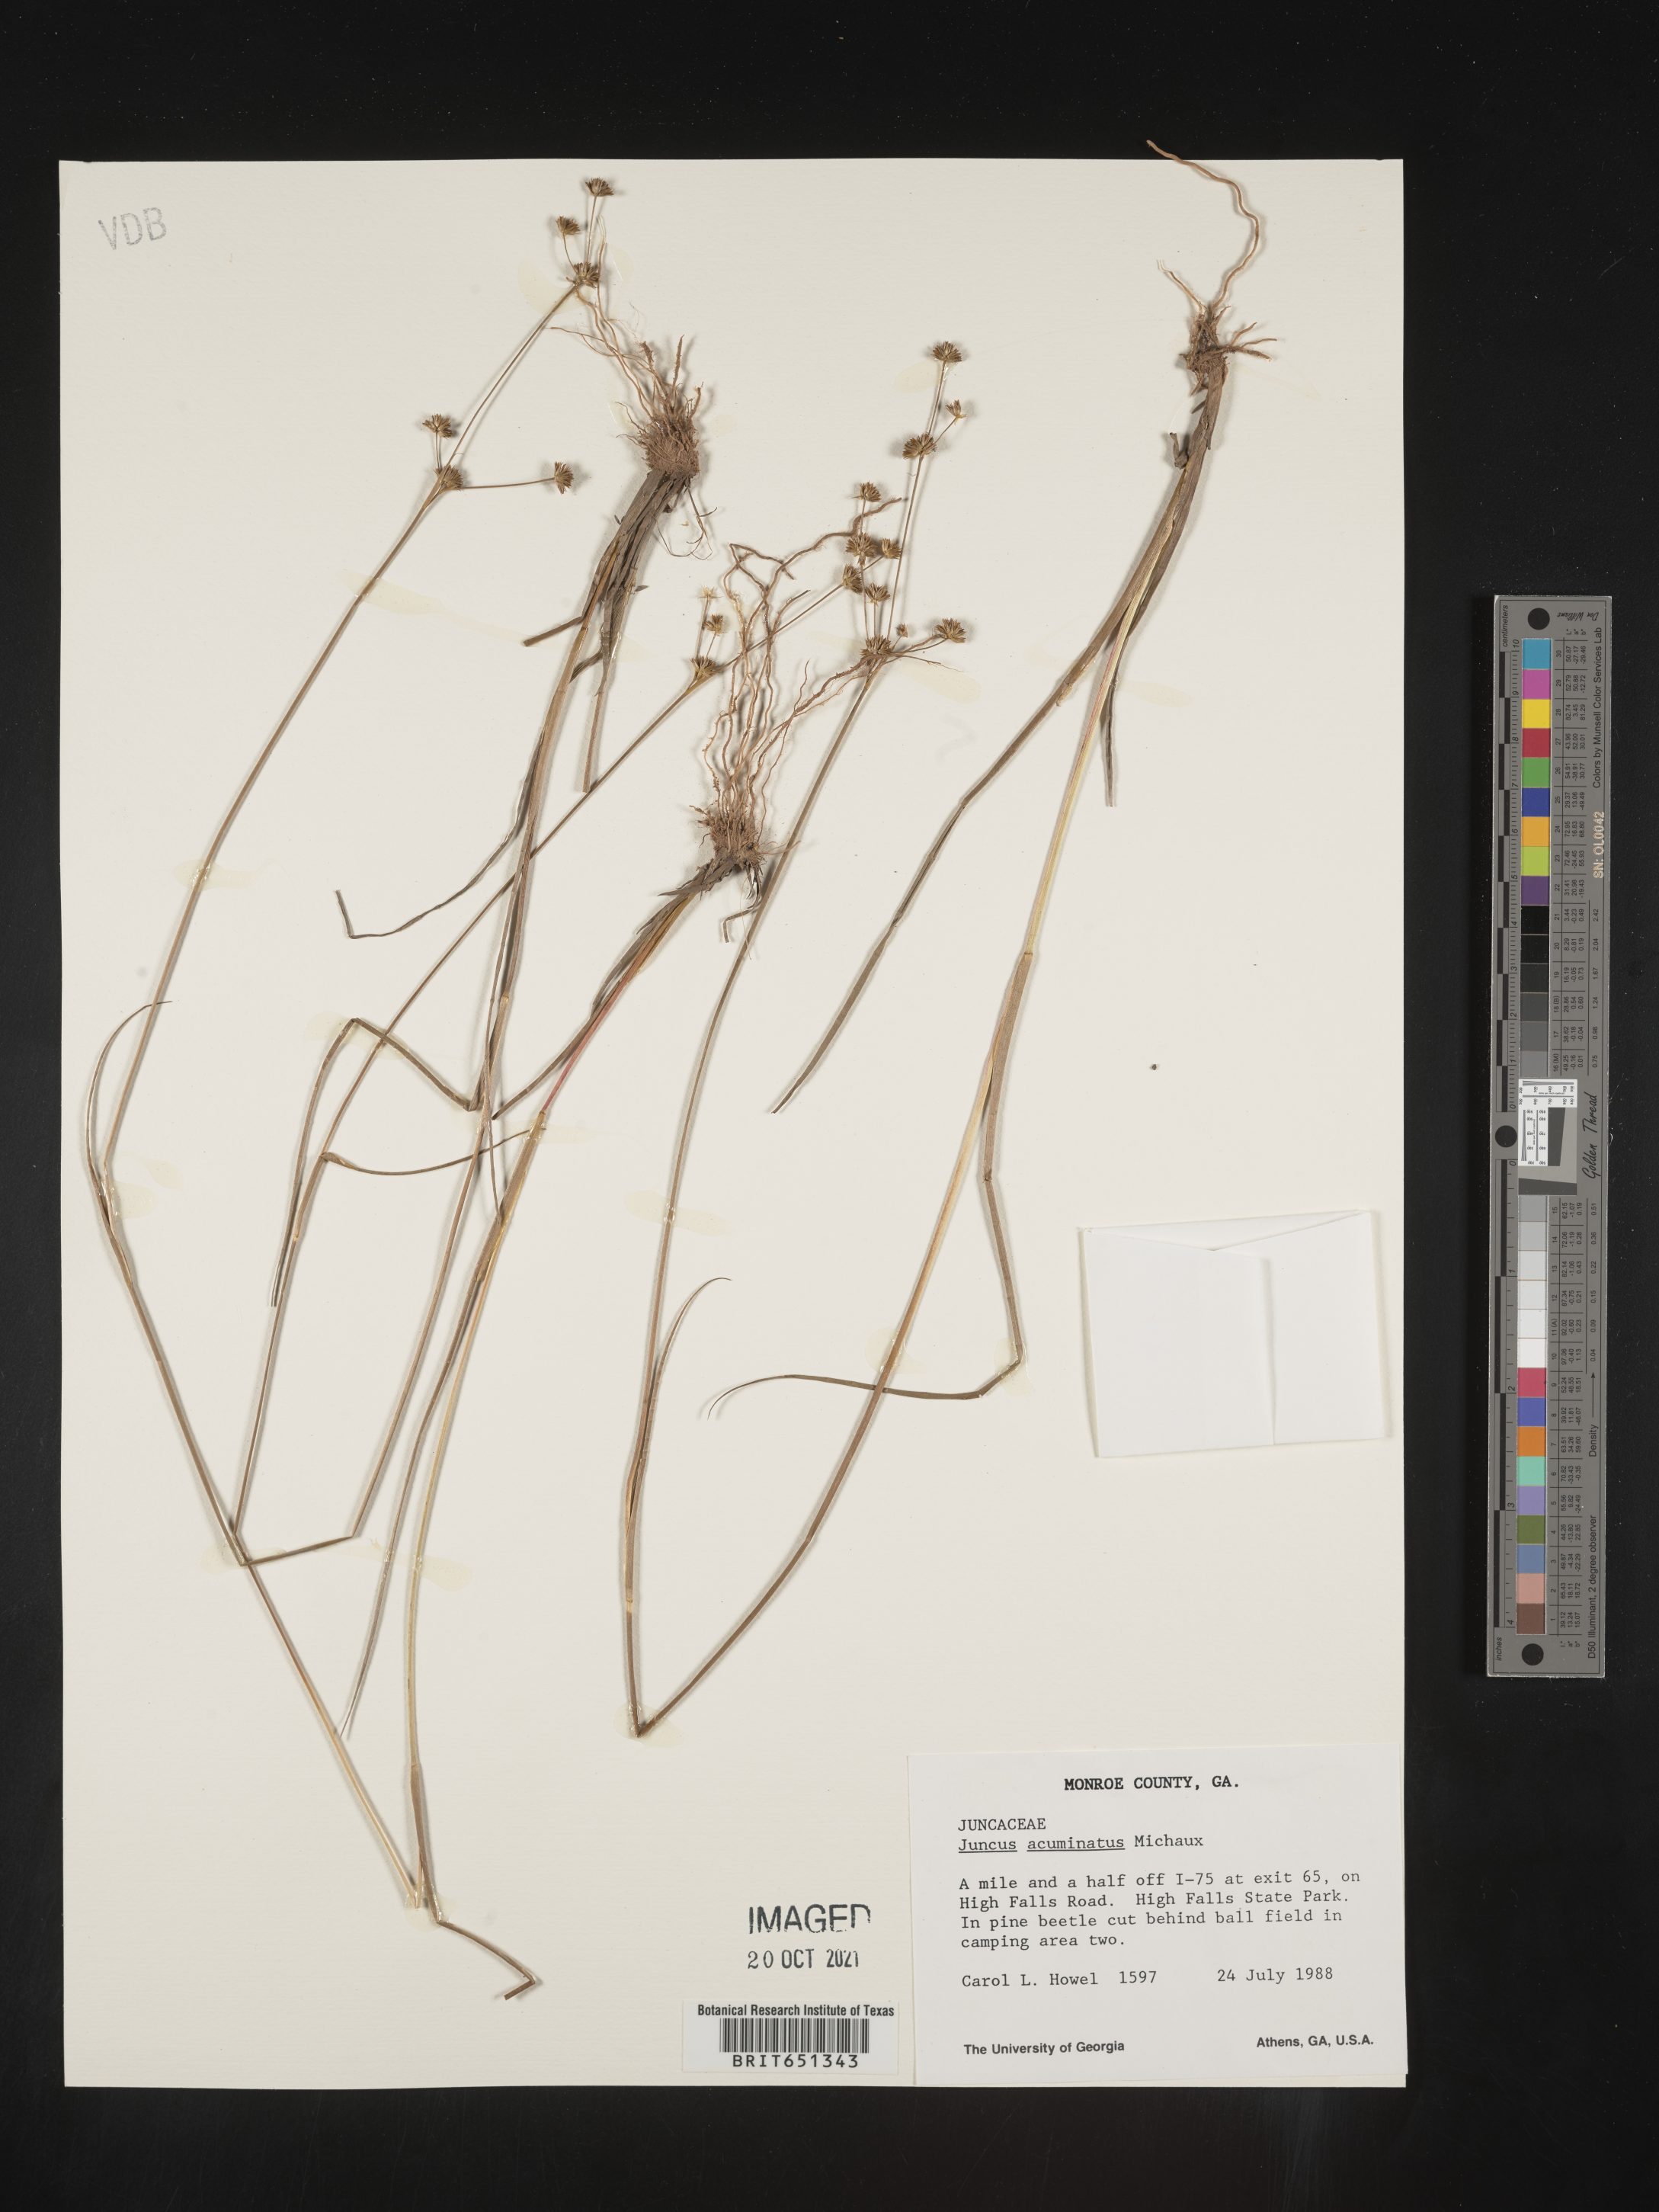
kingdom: Plantae
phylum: Tracheophyta
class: Liliopsida
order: Poales
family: Juncaceae
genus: Juncus
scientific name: Juncus acuminatus
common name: Knotty-leaved rush
